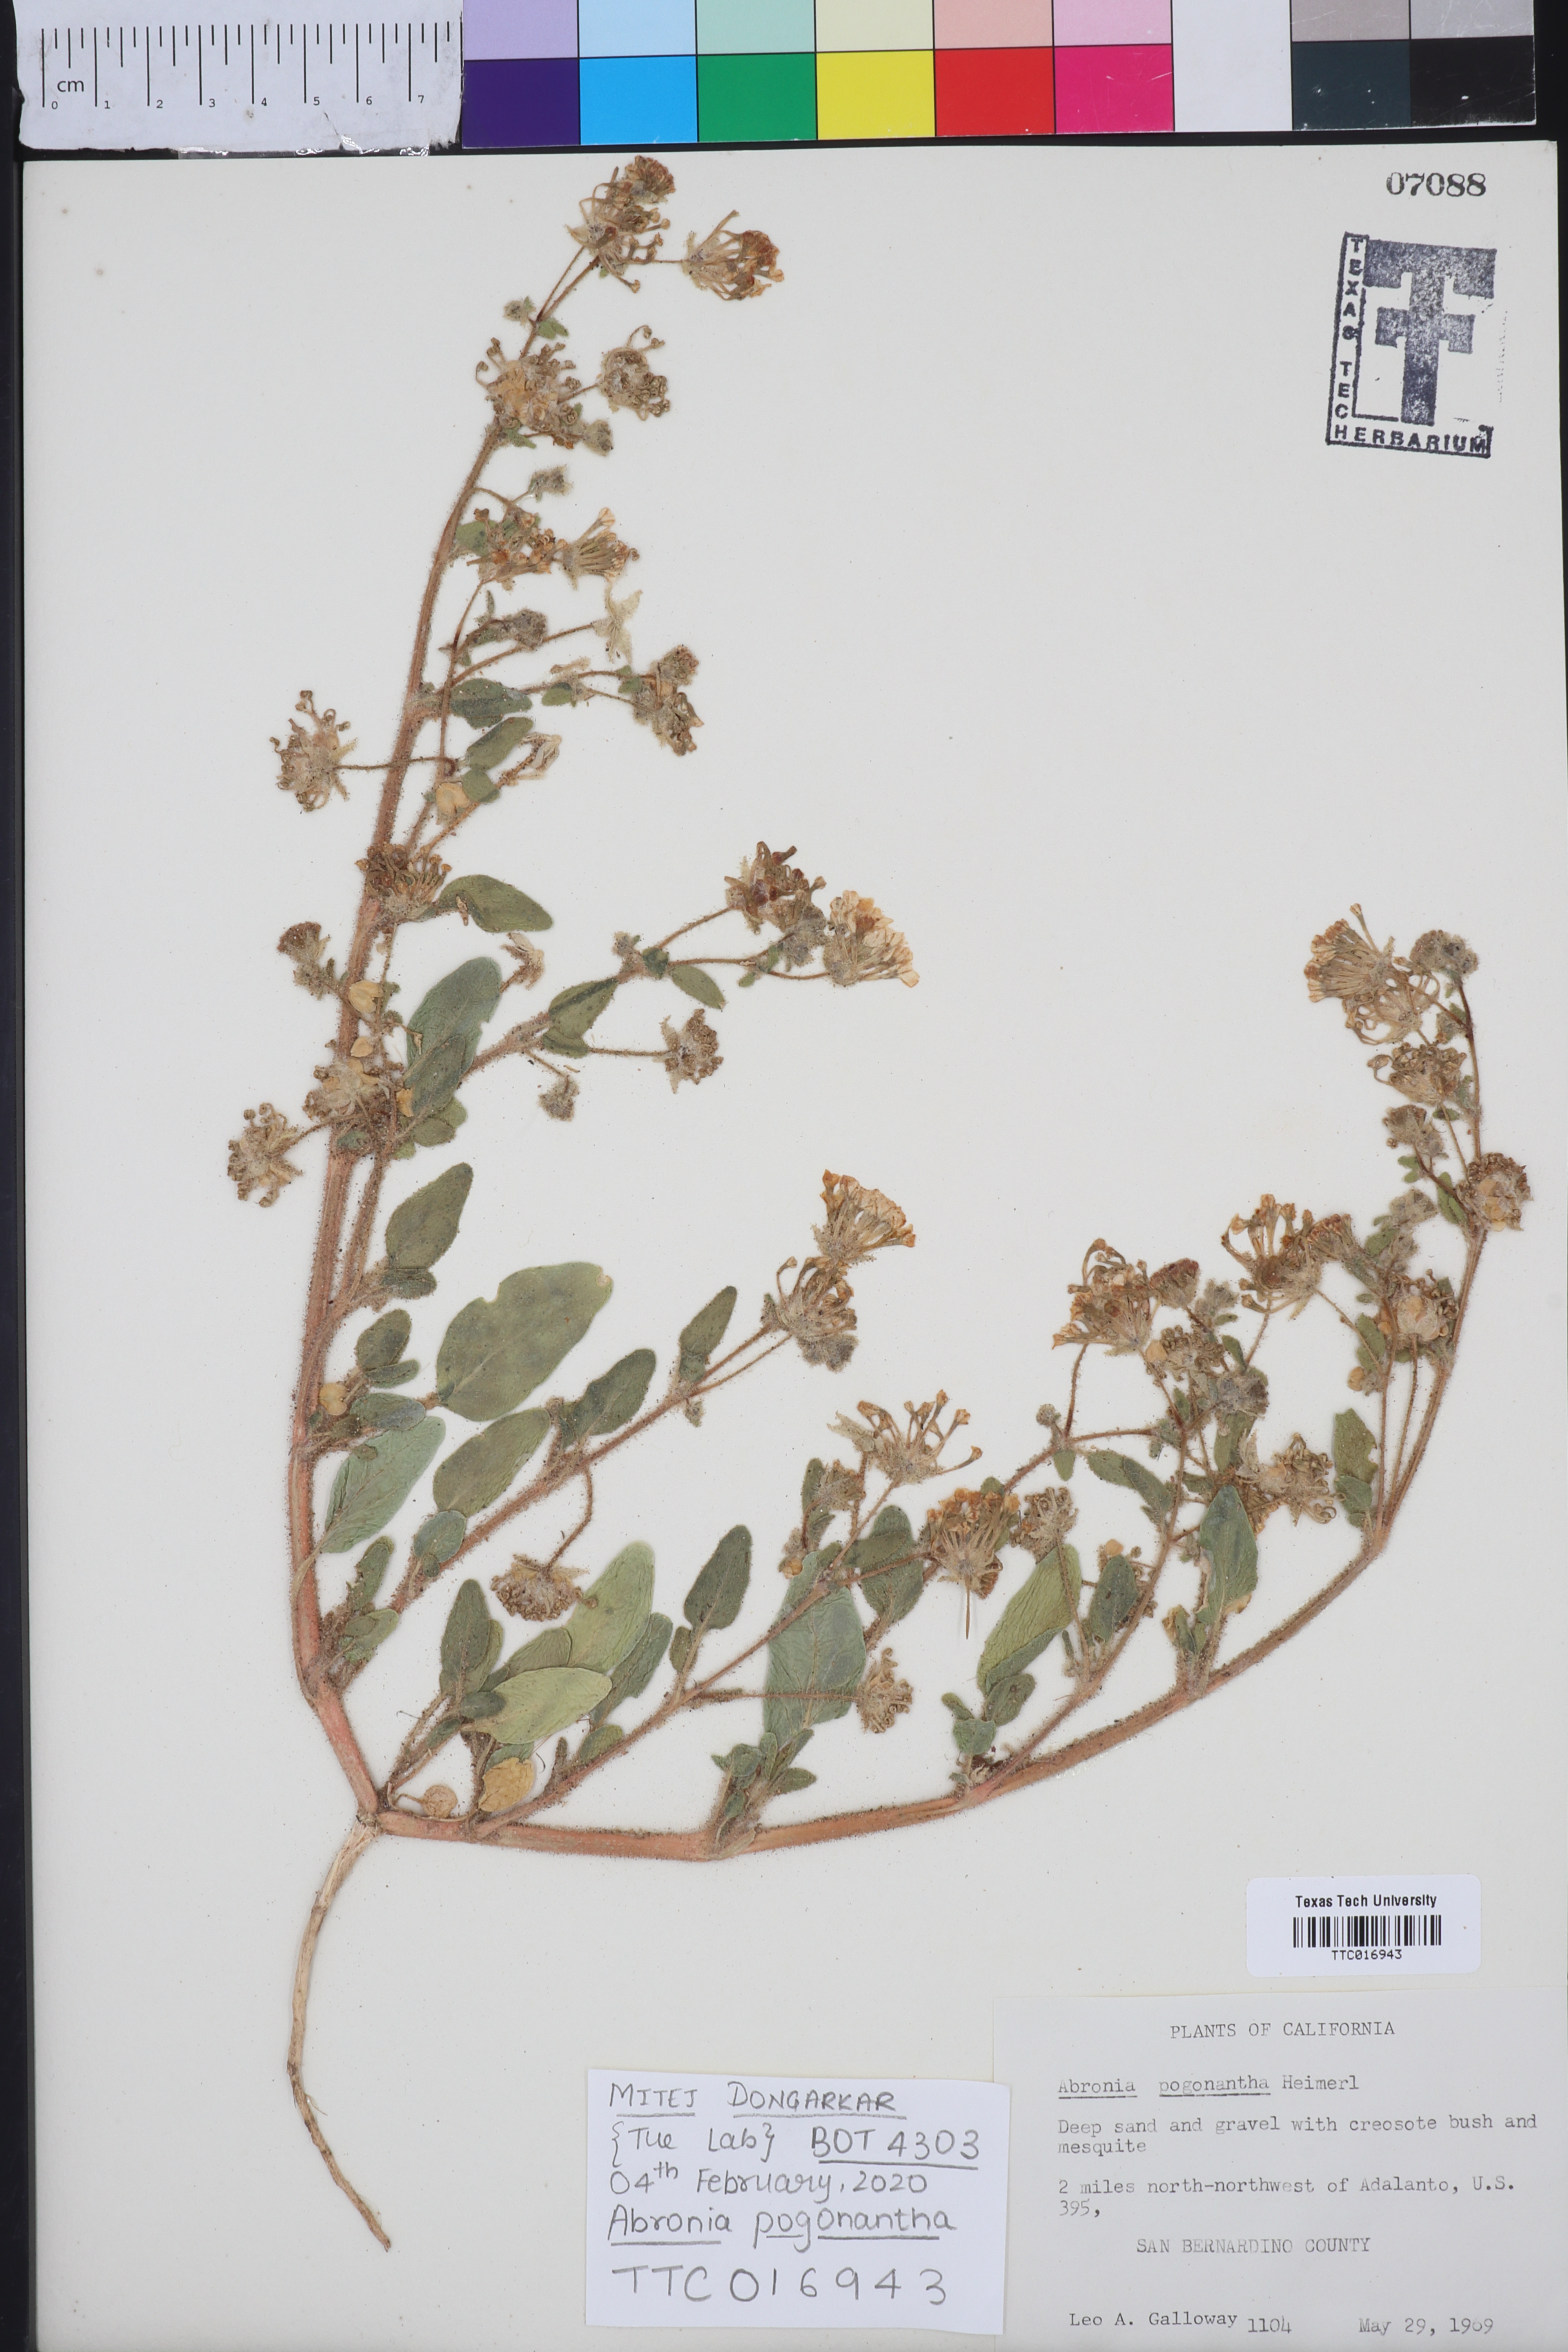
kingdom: Plantae
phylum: Tracheophyta
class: Magnoliopsida
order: Caryophyllales
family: Nyctaginaceae
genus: Abronia
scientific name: Abronia pogonantha
